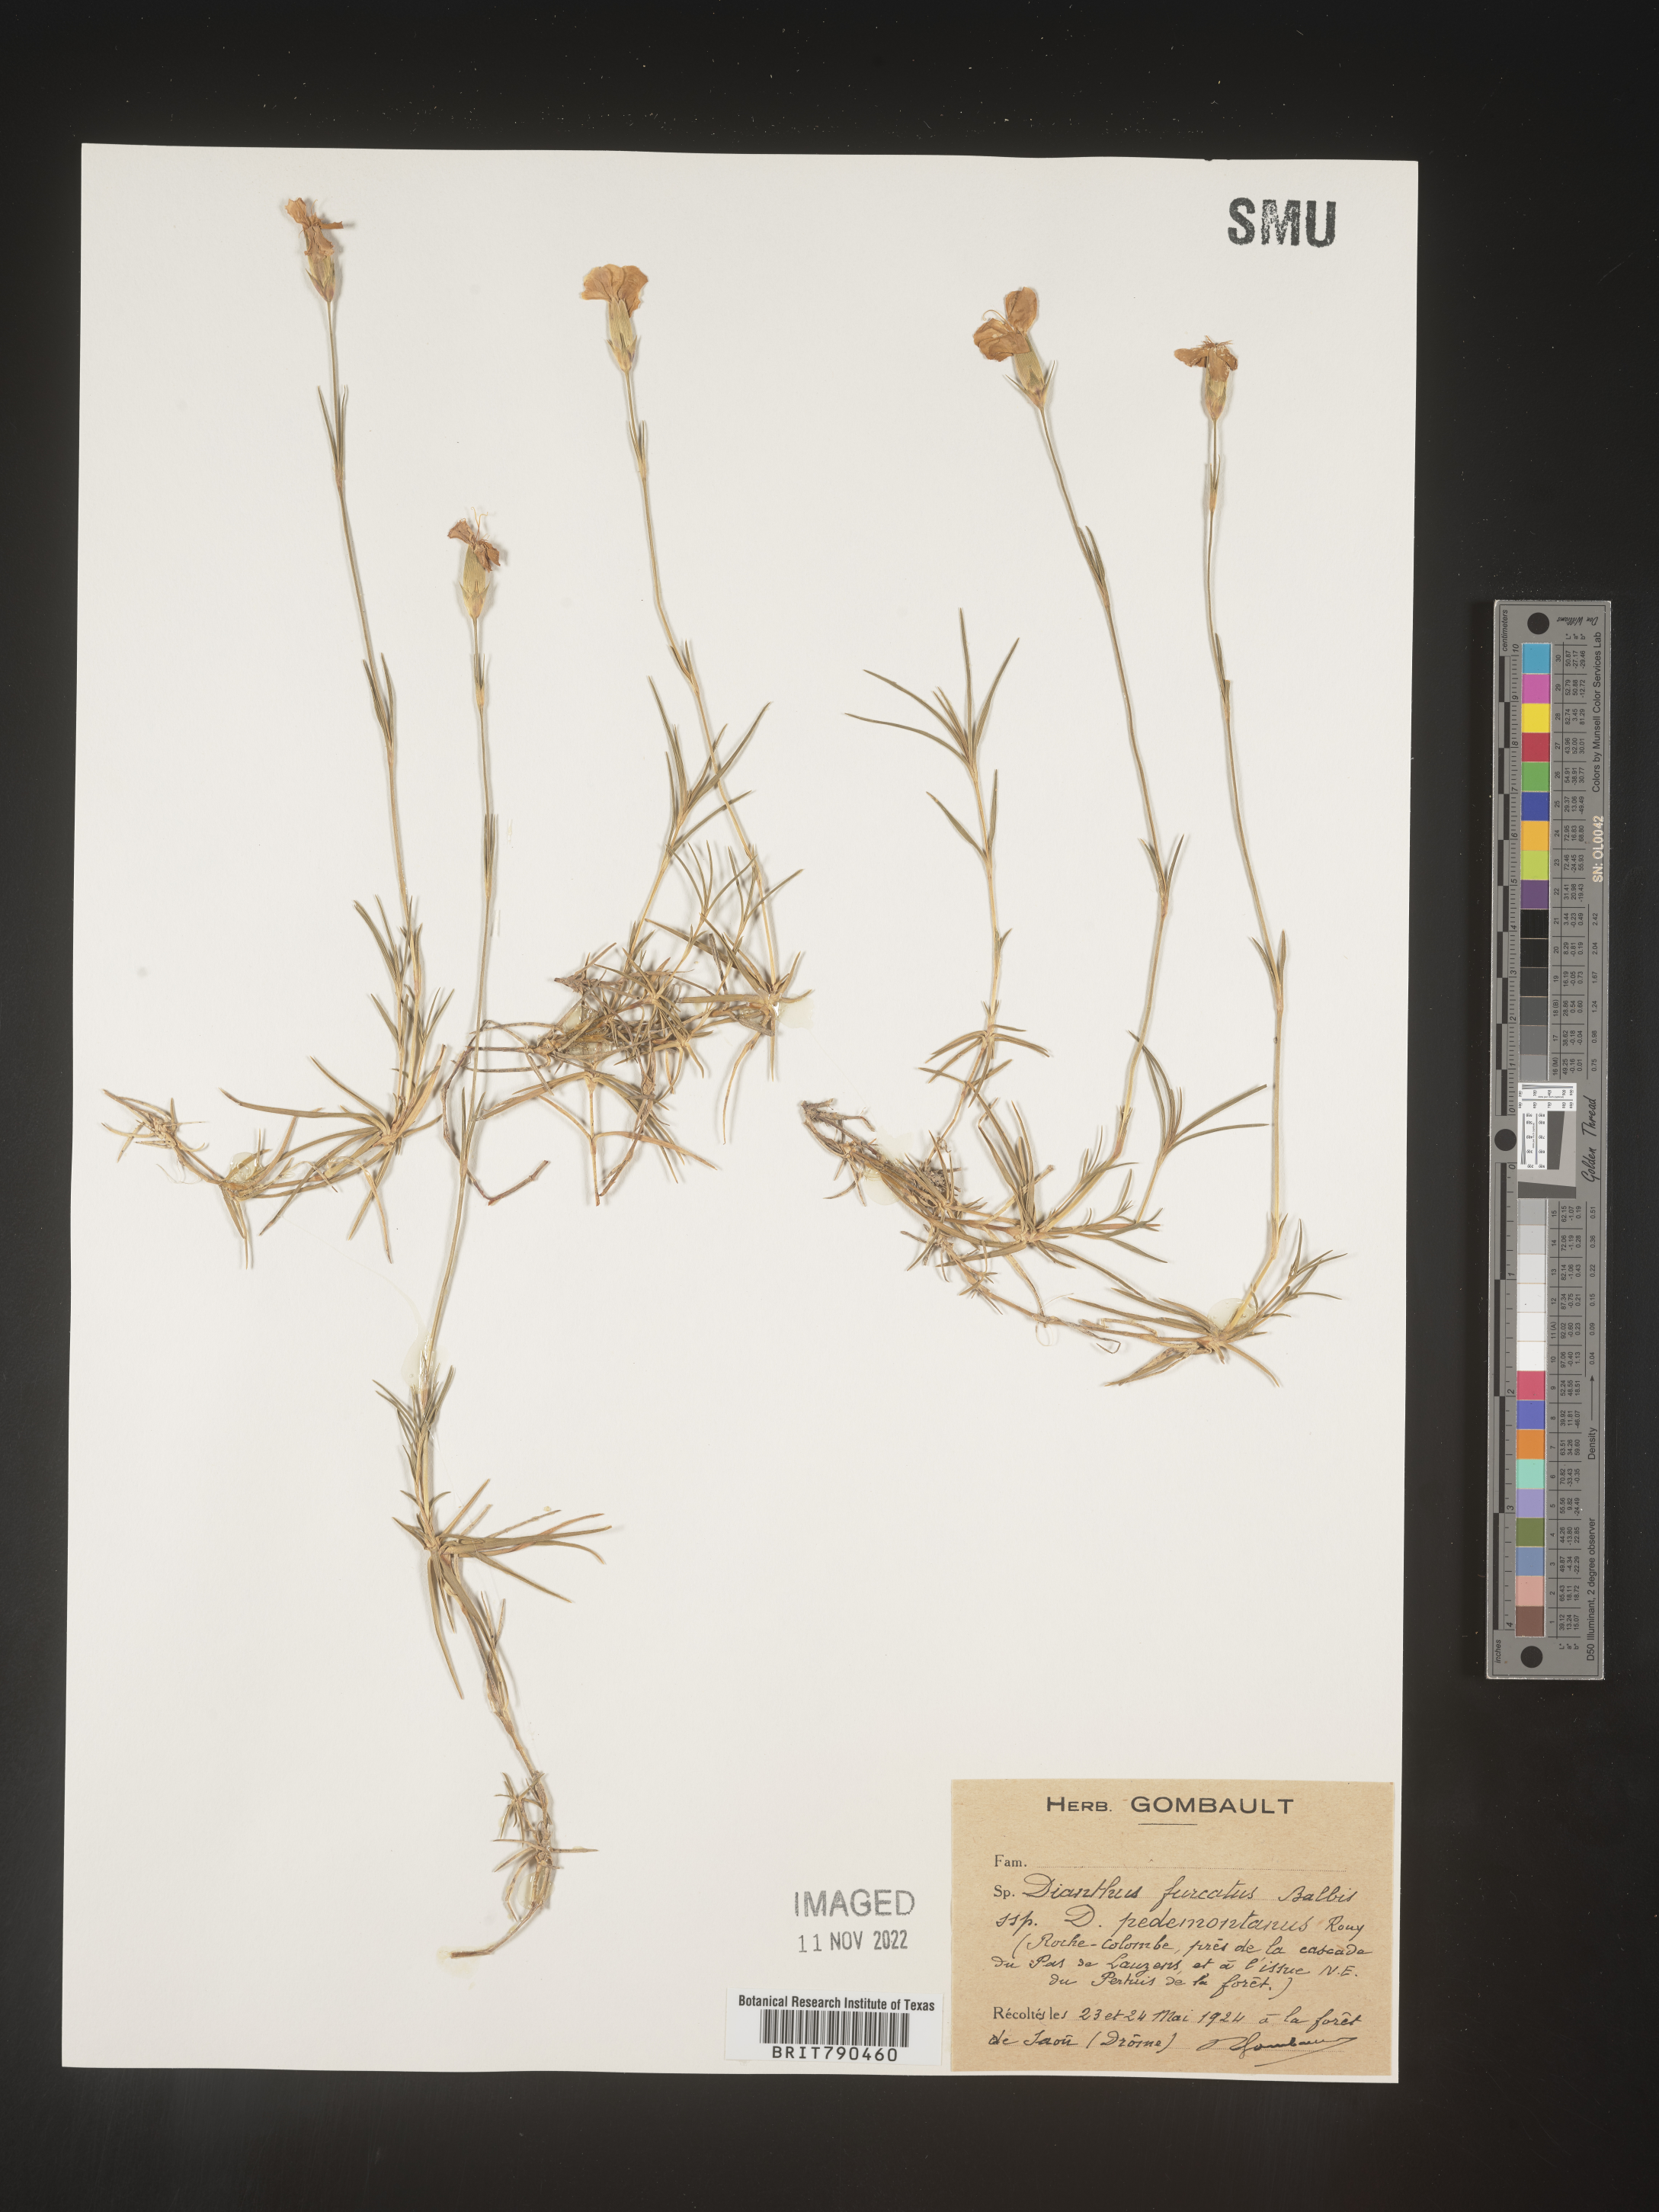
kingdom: Plantae
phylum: Tracheophyta
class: Magnoliopsida
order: Caryophyllales
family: Caryophyllaceae
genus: Dianthus
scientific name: Dianthus
